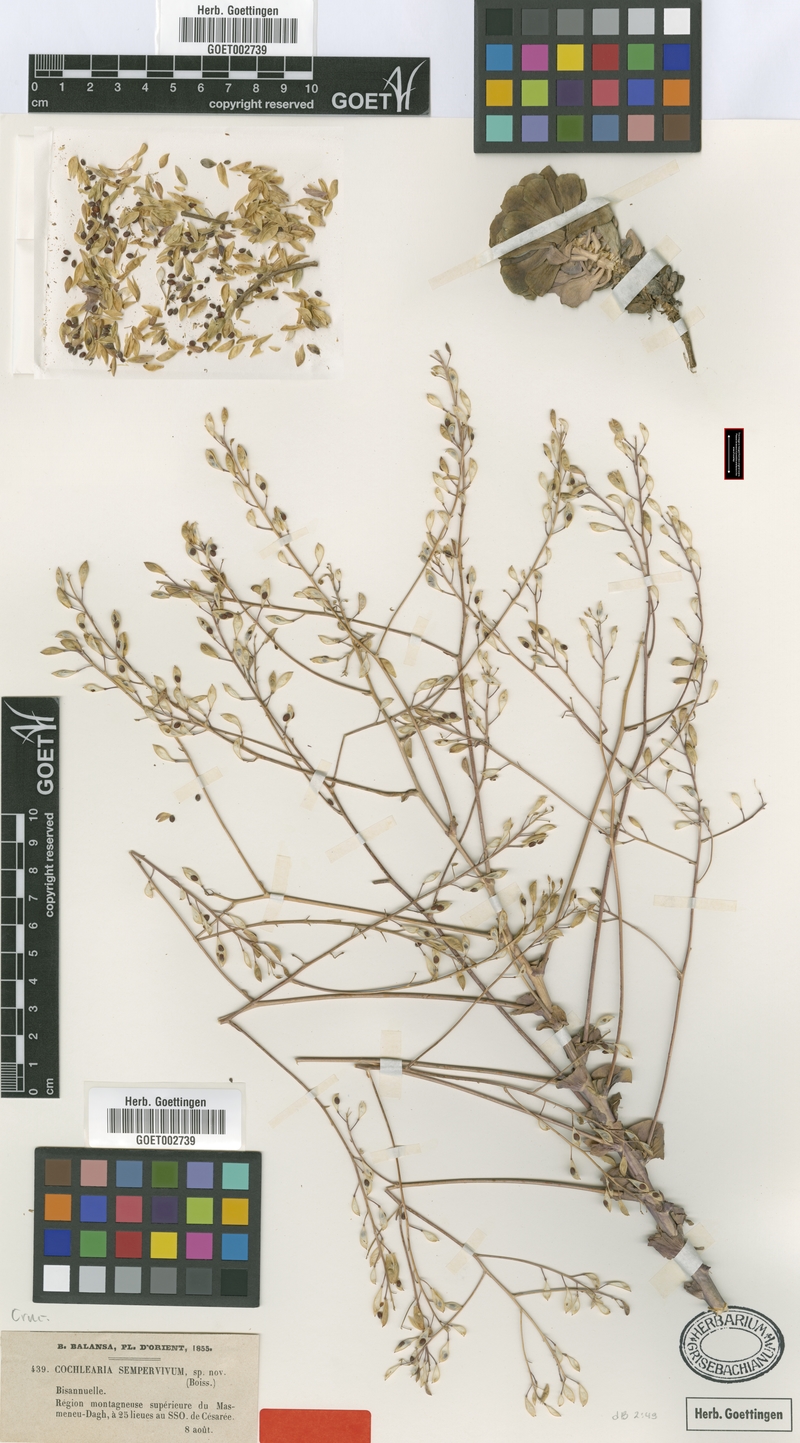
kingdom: Plantae
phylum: Tracheophyta
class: Magnoliopsida
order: Brassicales
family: Brassicaceae
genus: Pseudosempervivum
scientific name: Pseudosempervivum sempervivum
